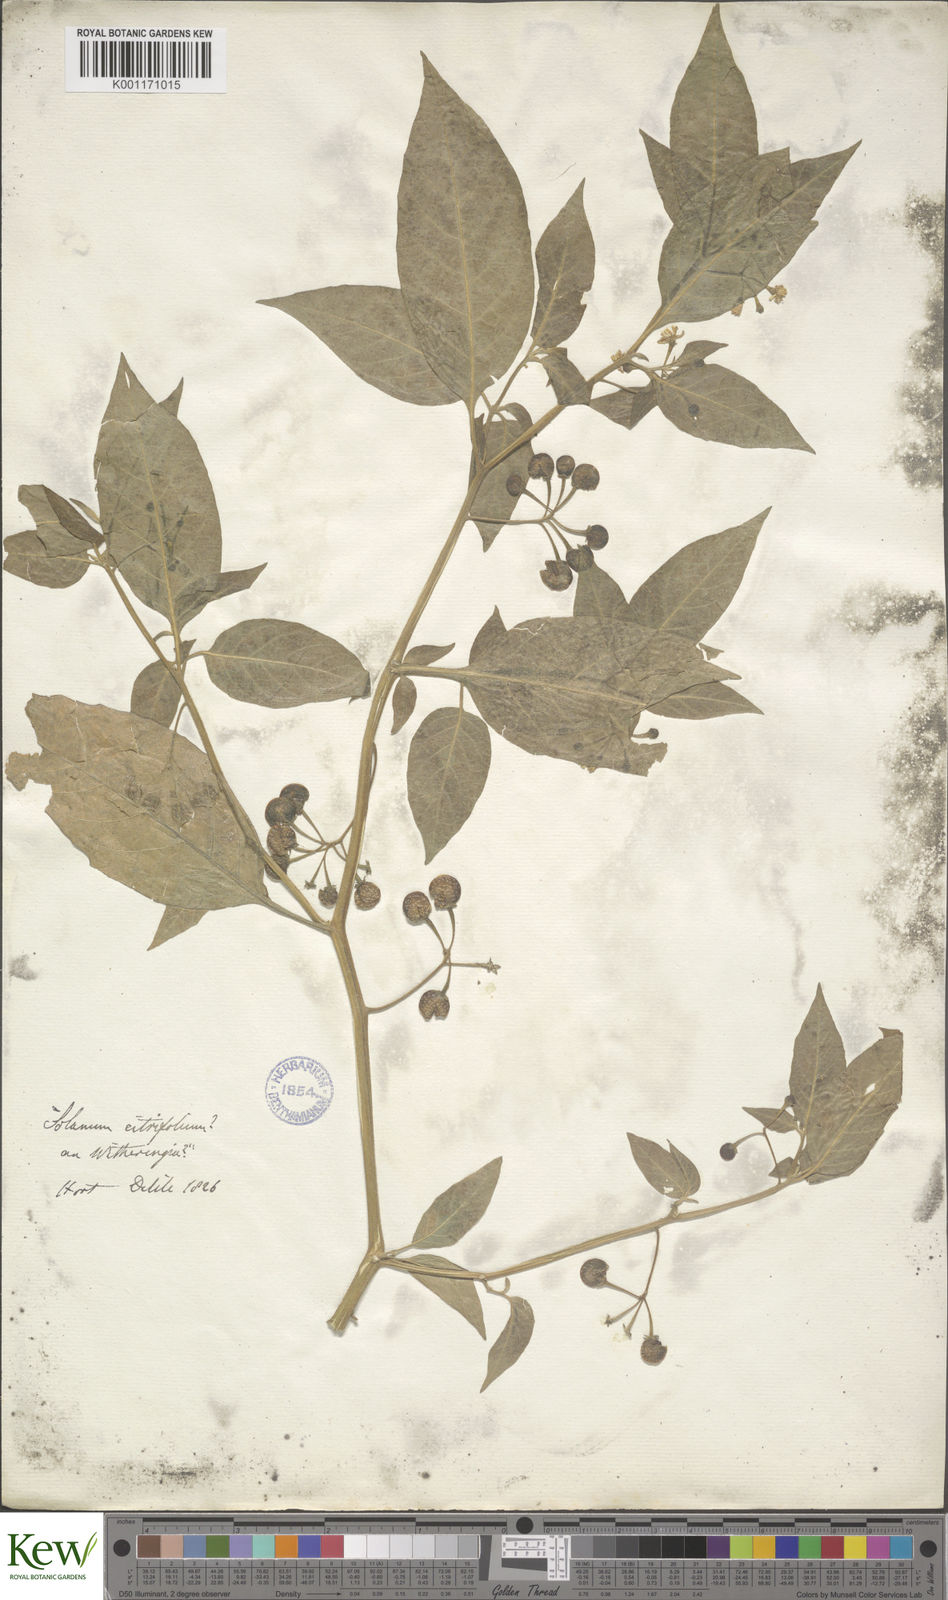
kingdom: Plantae
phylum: Tracheophyta
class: Magnoliopsida
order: Solanales
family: Solanaceae
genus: Solanum
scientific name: Solanum
